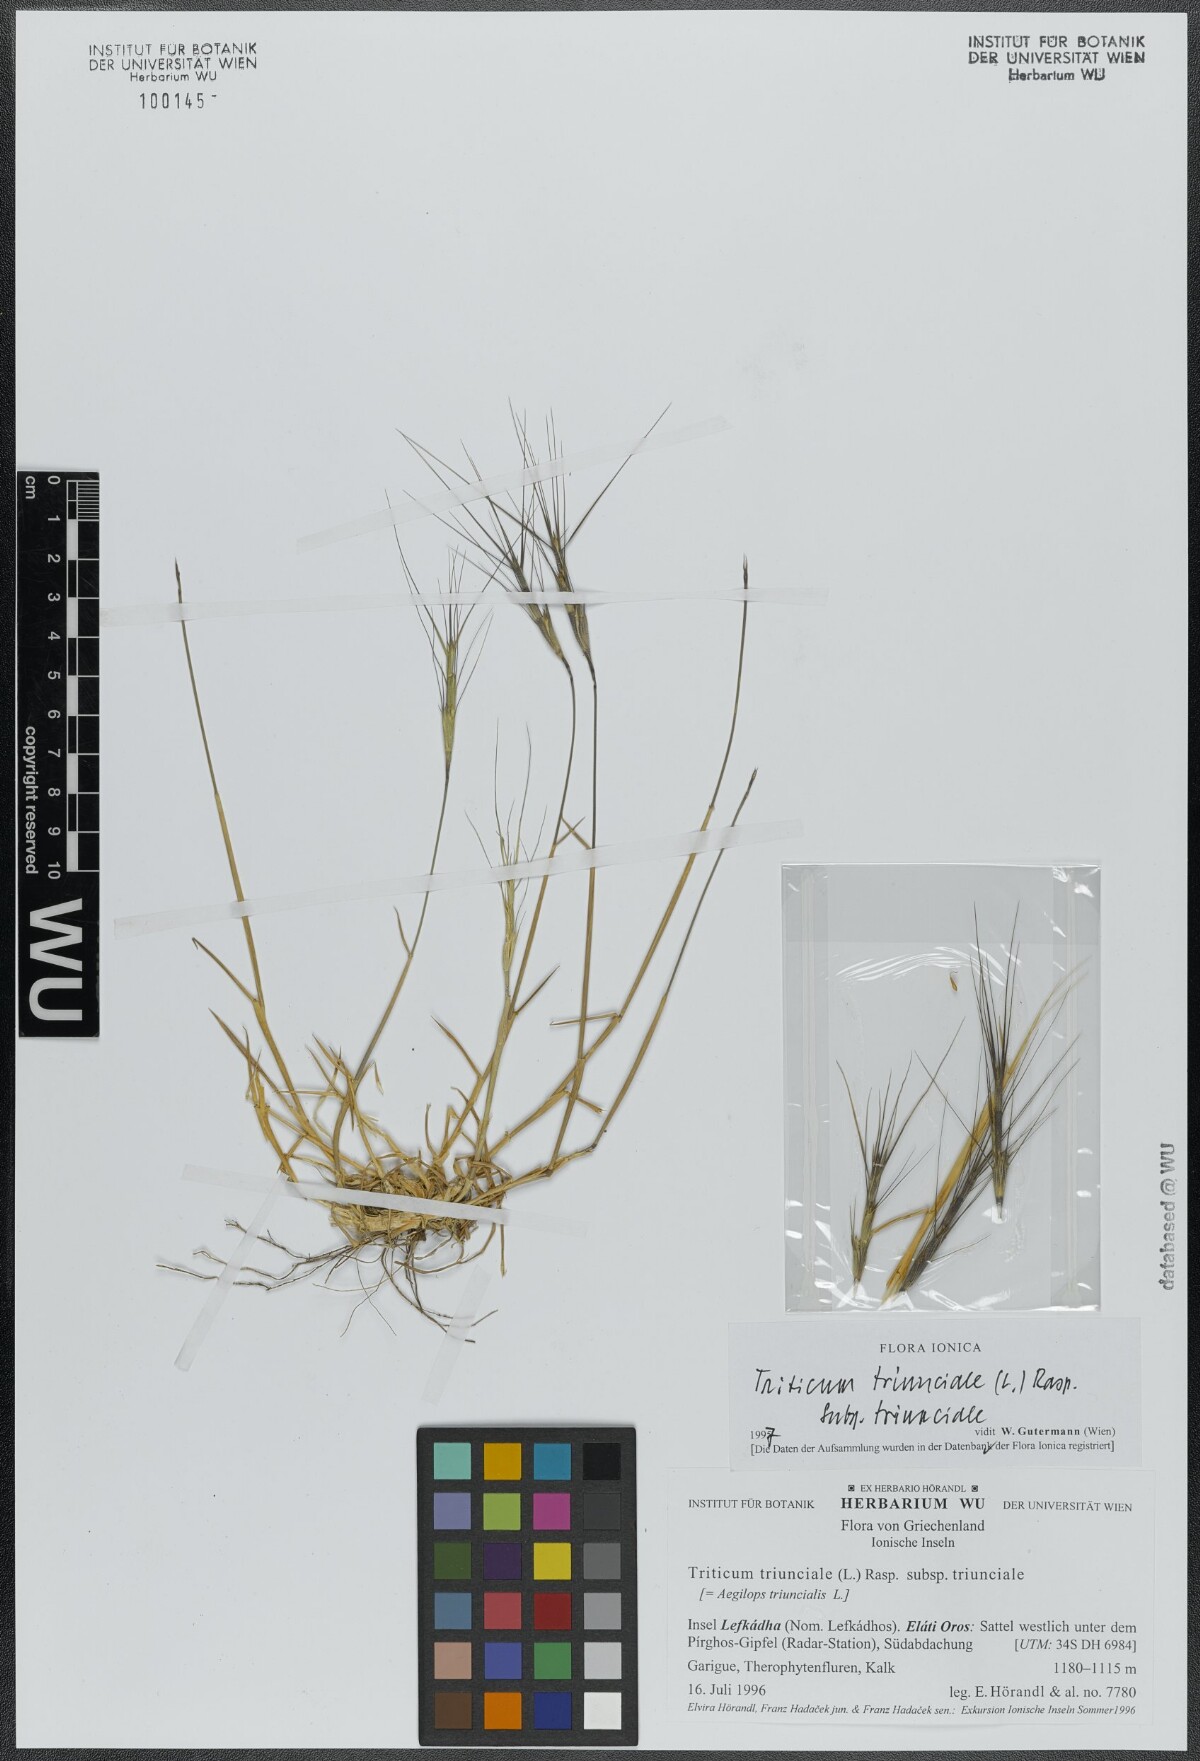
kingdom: Plantae
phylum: Tracheophyta
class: Liliopsida
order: Poales
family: Poaceae
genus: Aegilops
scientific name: Aegilops triuncialis
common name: Barb goat grass
